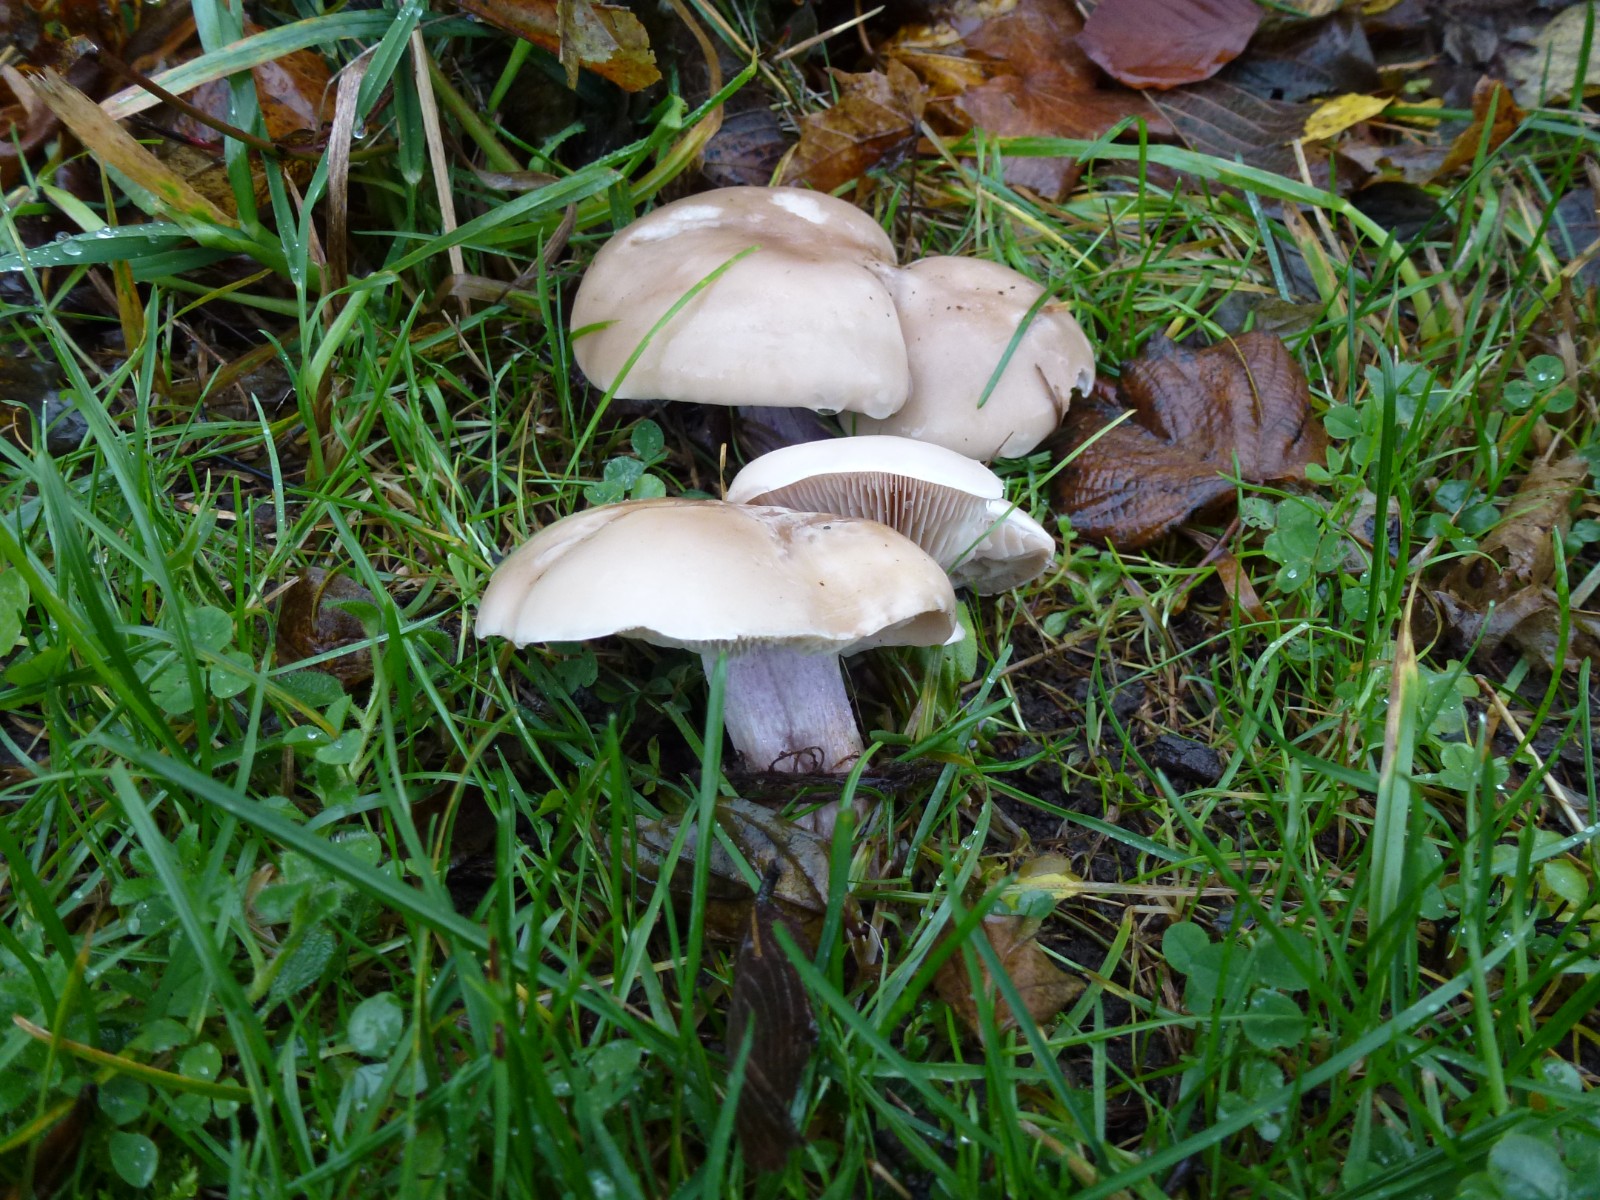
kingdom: Fungi
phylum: Basidiomycota
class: Agaricomycetes
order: Agaricales
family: Tricholomataceae
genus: Lepista
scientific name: Lepista personata
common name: bleg hekseringshat
